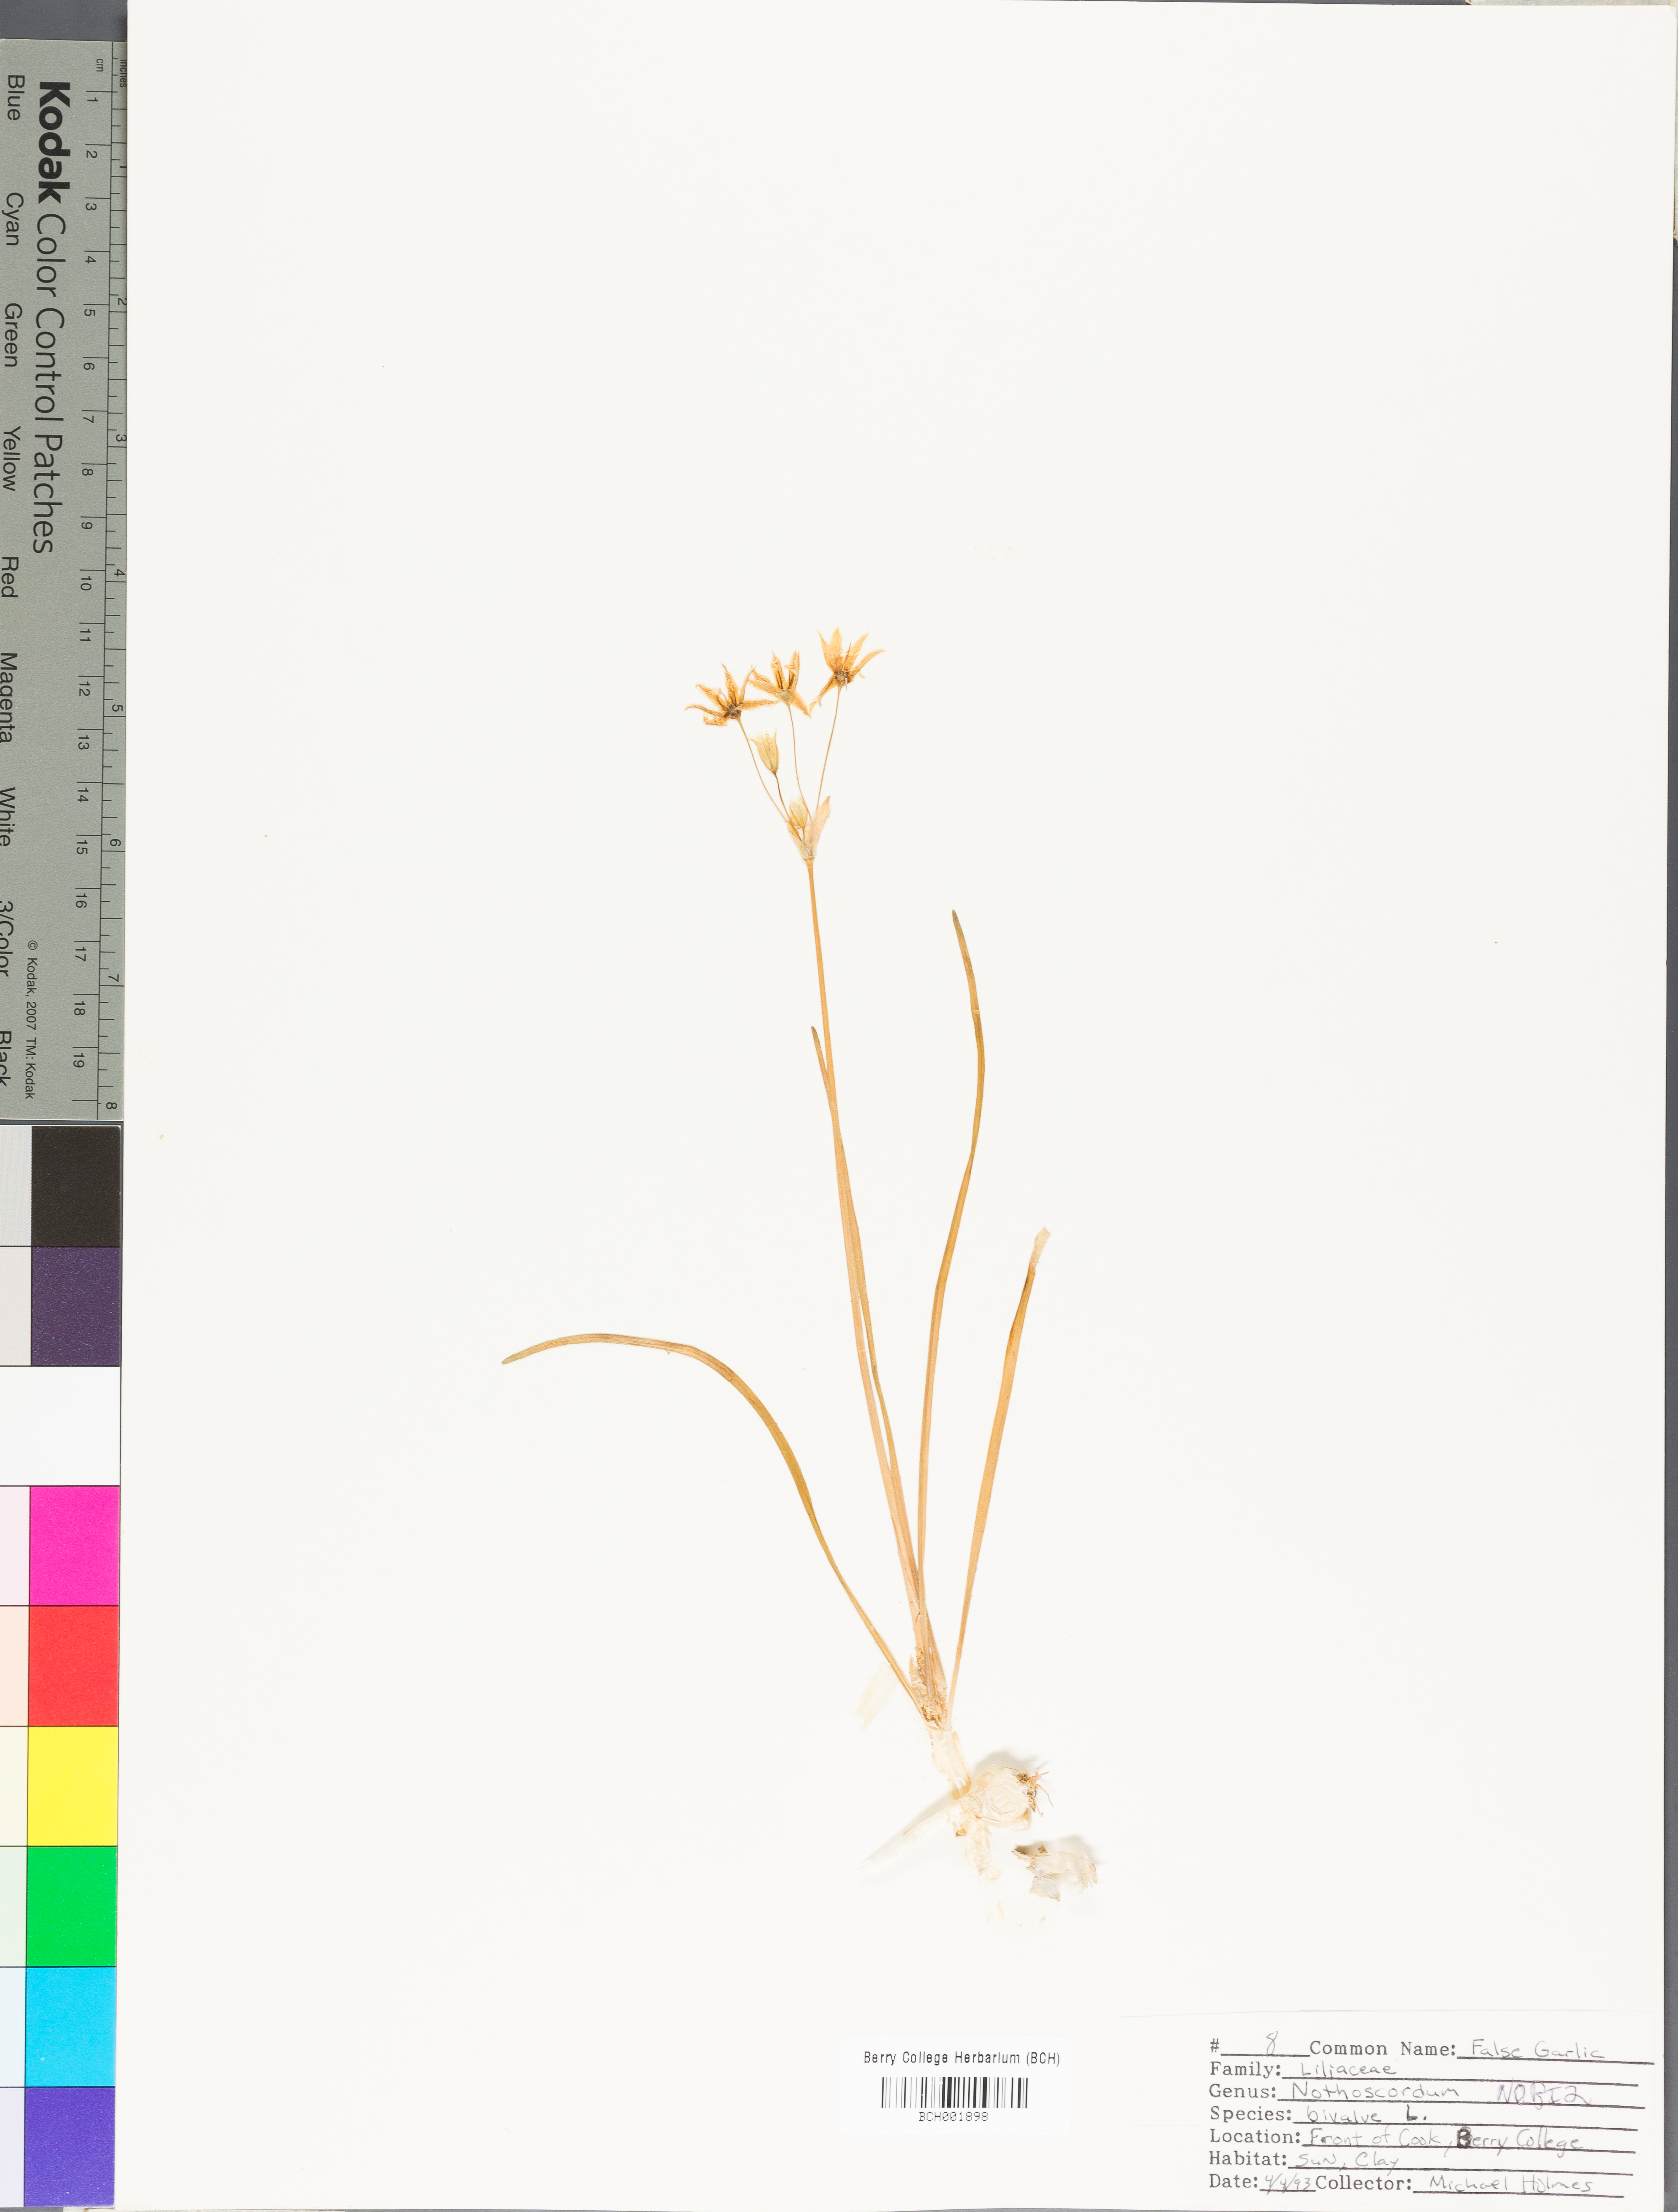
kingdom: Plantae
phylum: Tracheophyta
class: Liliopsida
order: Asparagales
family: Amaryllidaceae
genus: Nothoscordum
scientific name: Nothoscordum bivalve
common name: Crow-poison
